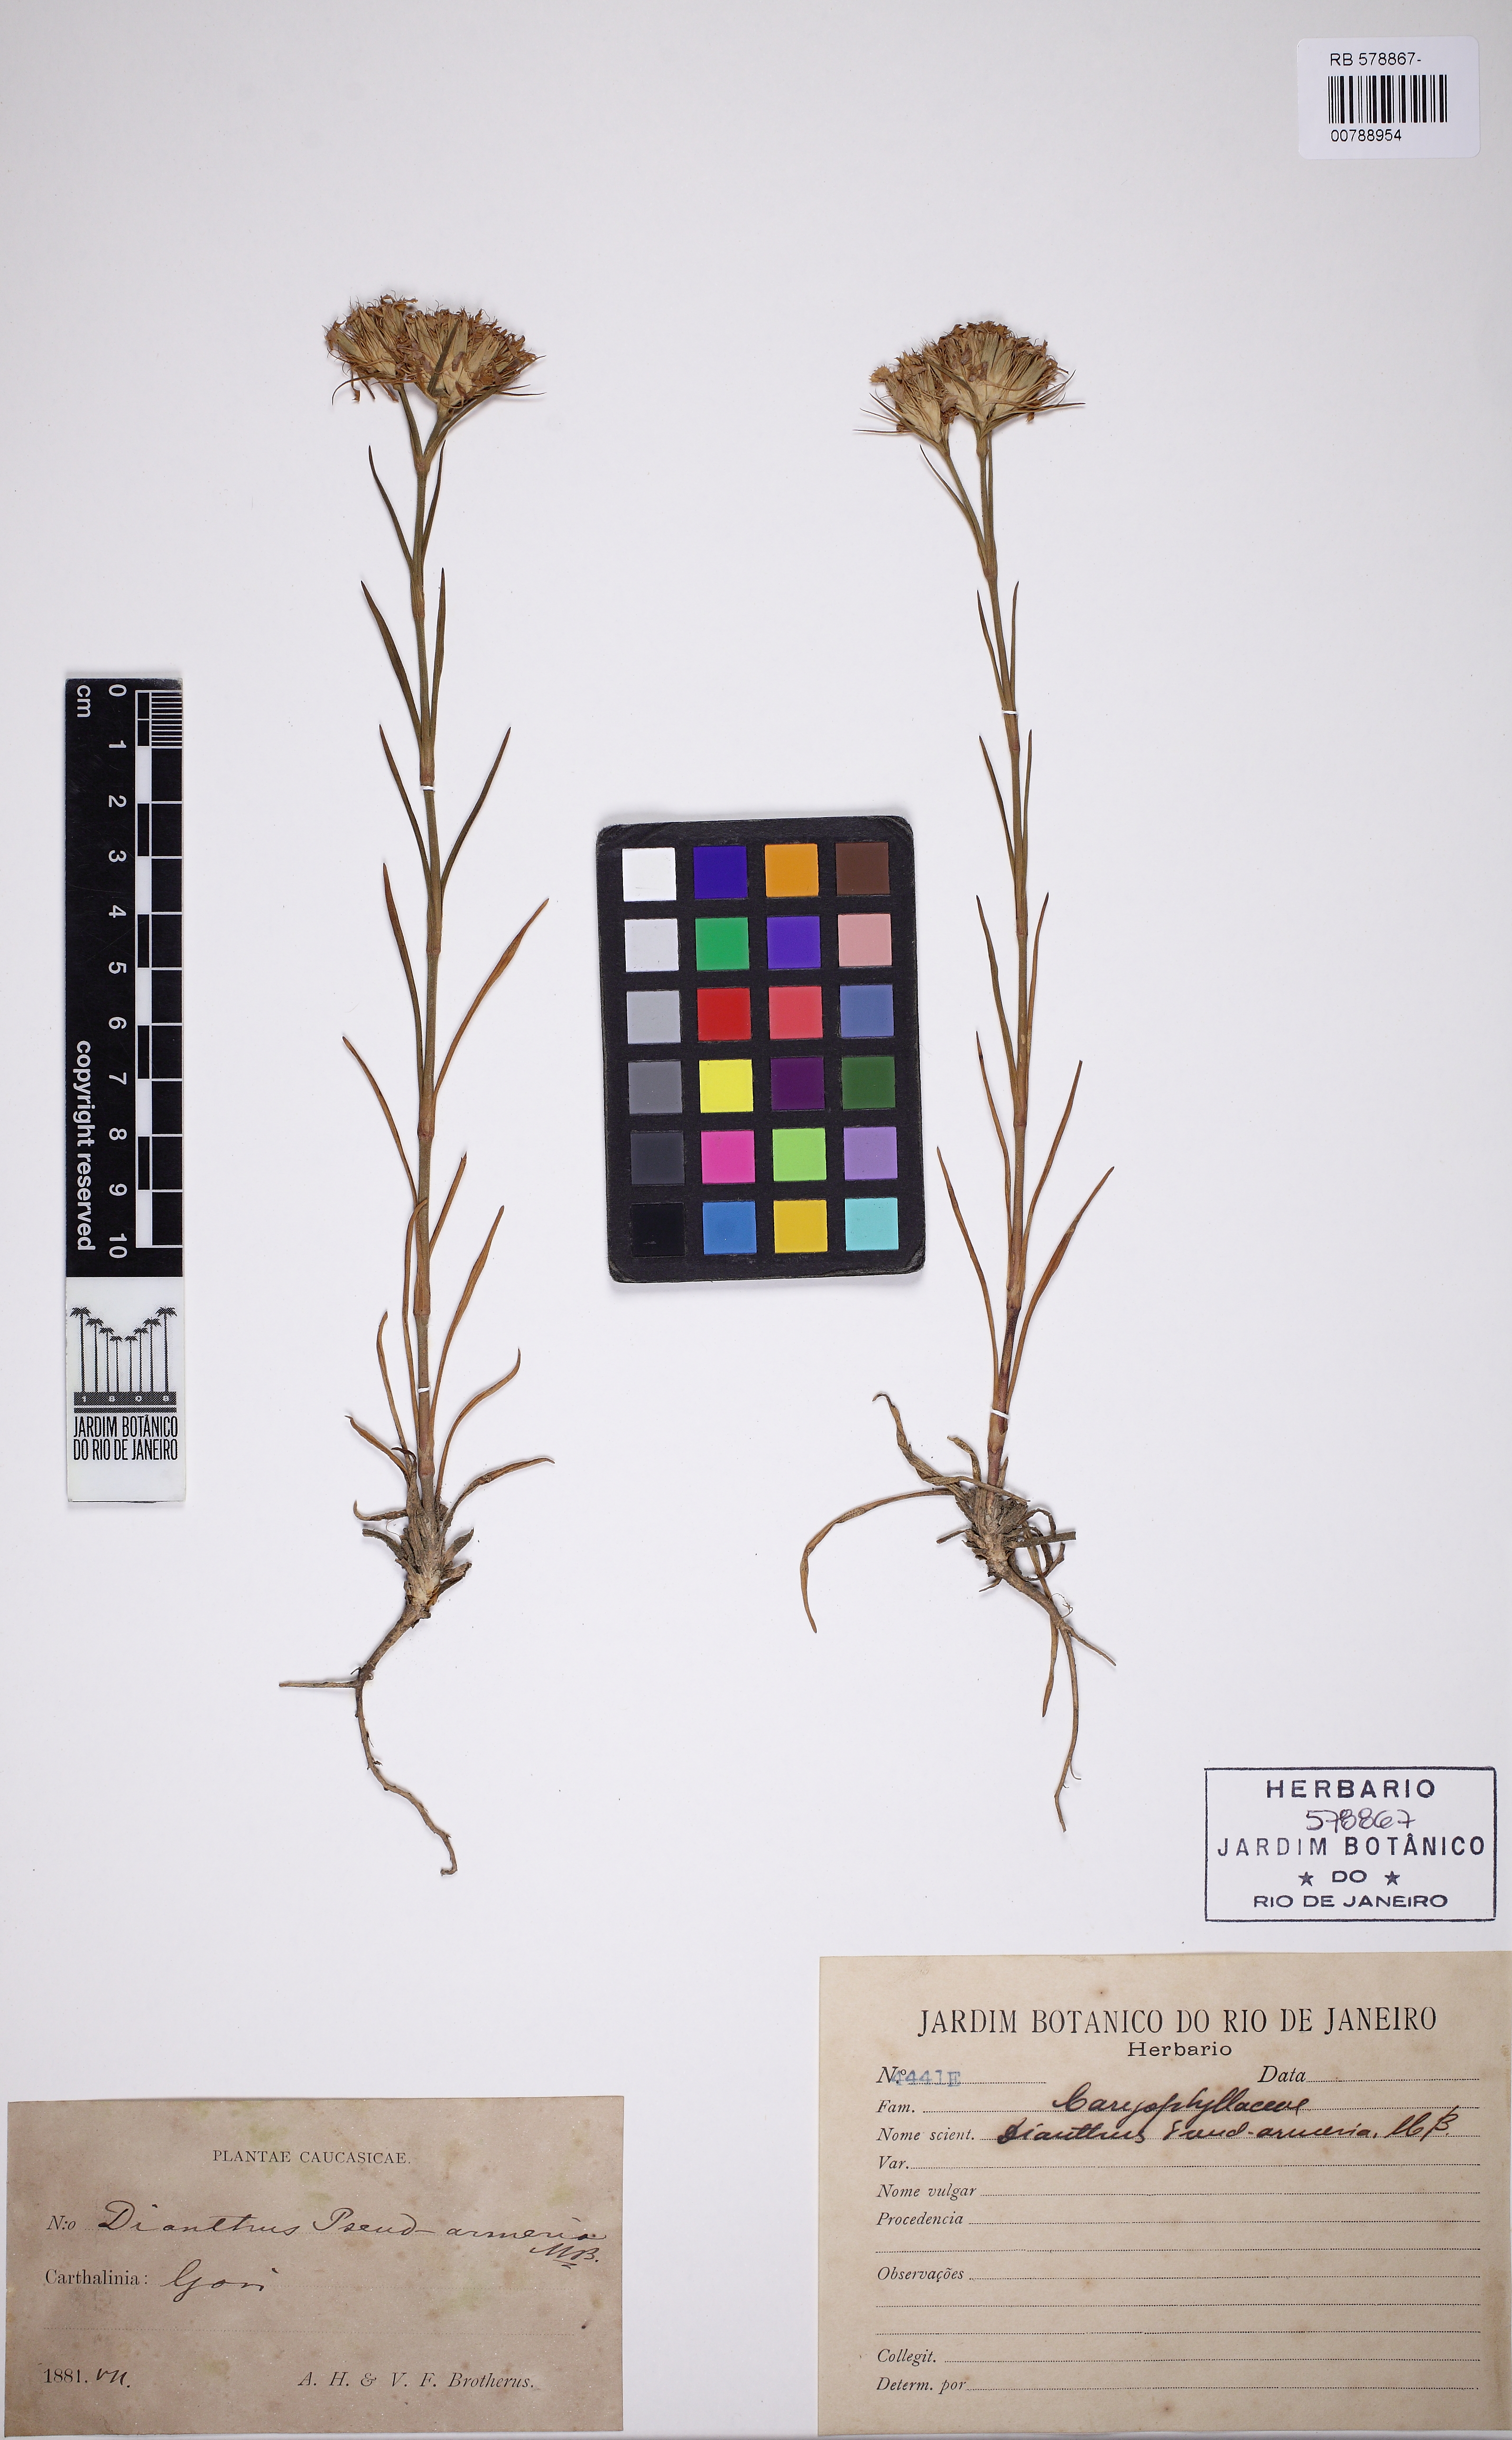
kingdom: Plantae
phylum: Tracheophyta
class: Magnoliopsida
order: Caryophyllales
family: Caryophyllaceae
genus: Dianthus
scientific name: Dianthus pseudarmeria
